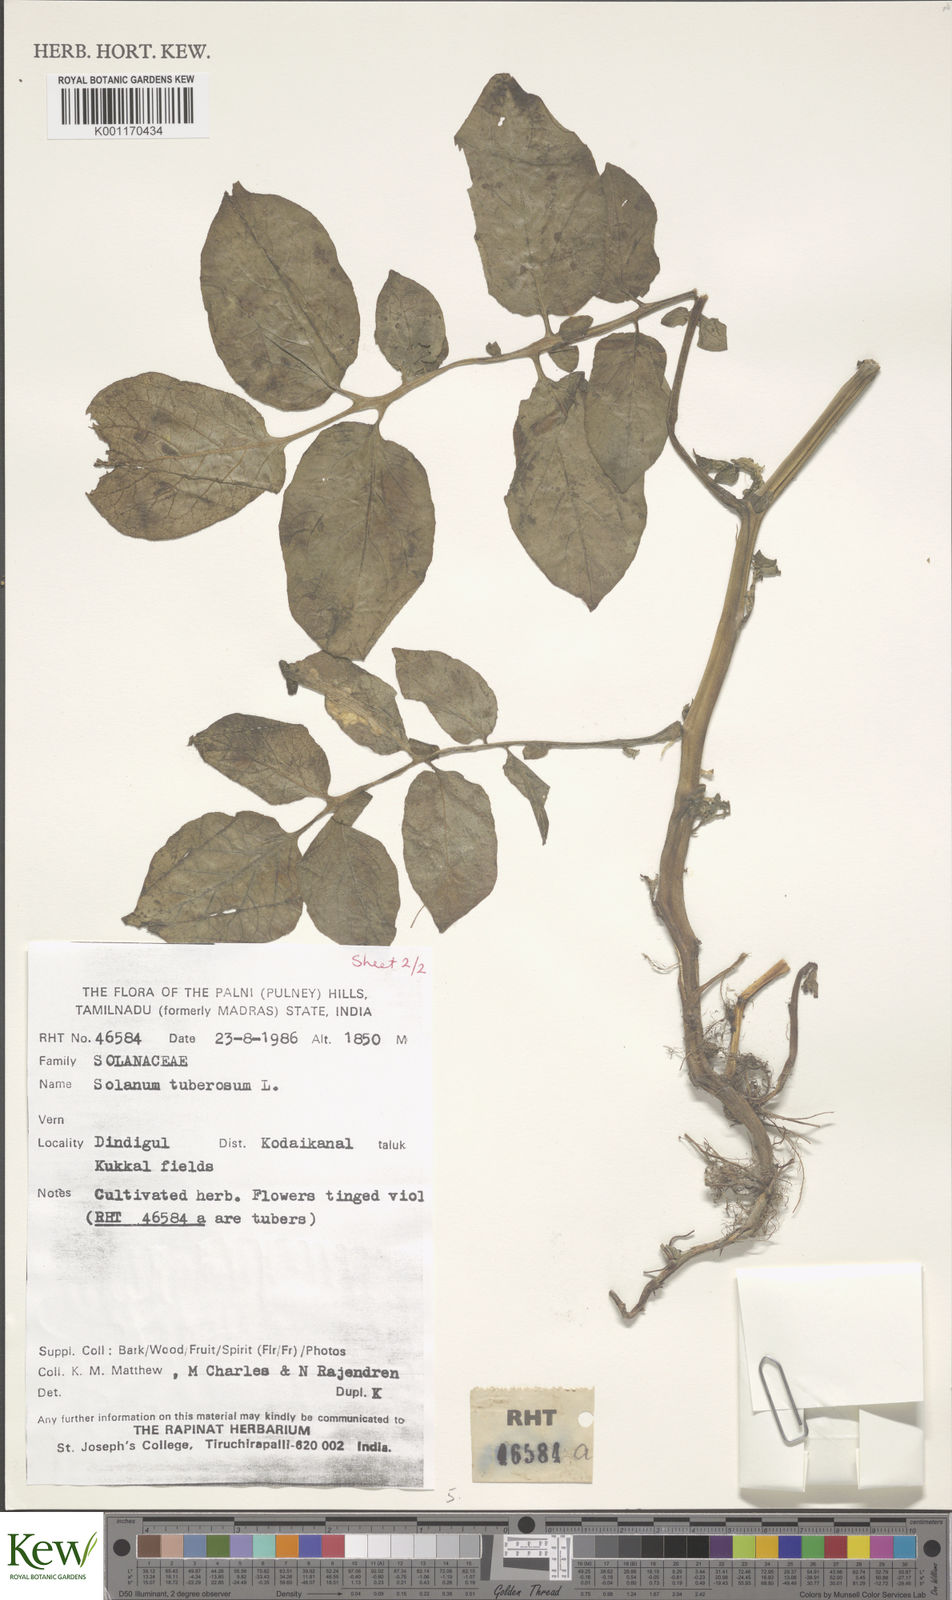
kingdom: Plantae
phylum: Tracheophyta
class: Magnoliopsida
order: Solanales
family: Solanaceae
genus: Solanum
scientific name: Solanum tuberosum
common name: Potato
